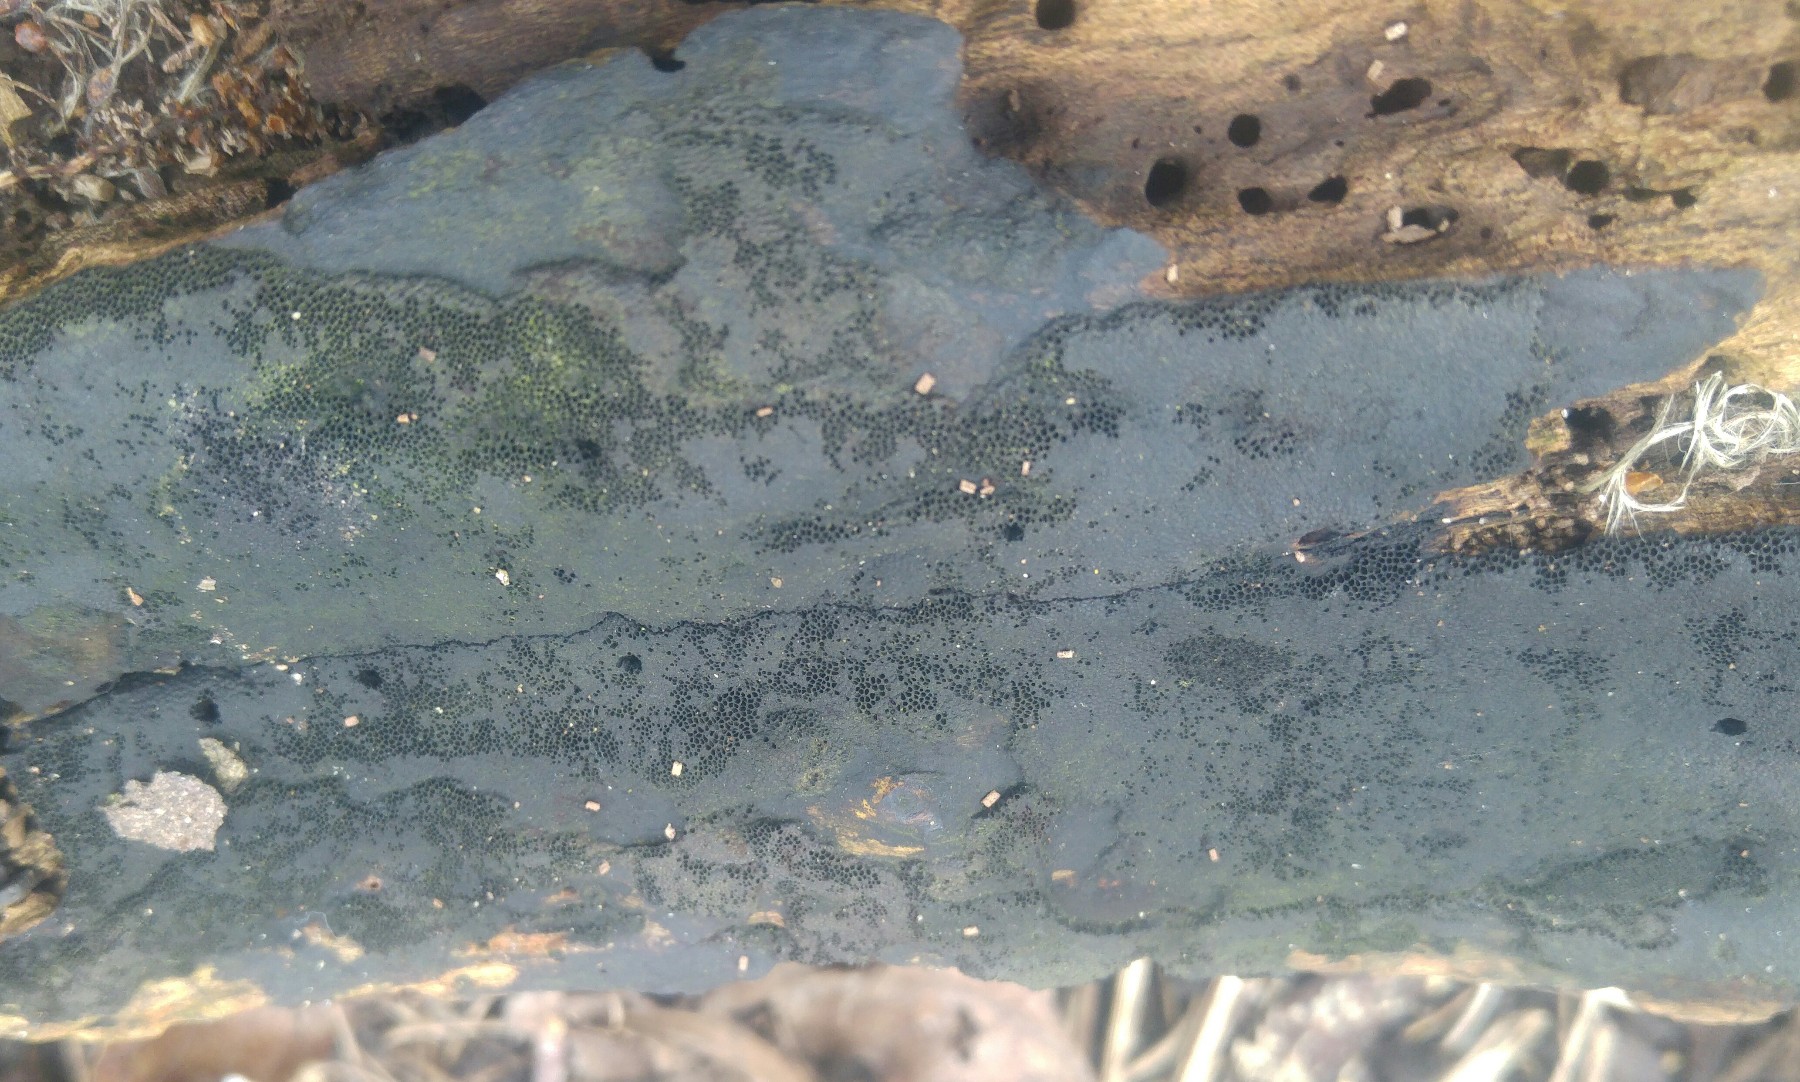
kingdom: Fungi
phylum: Ascomycota
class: Sordariomycetes
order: Xylariales
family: Hypoxylaceae
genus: Hypoxylon
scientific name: Hypoxylon
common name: kulbær
